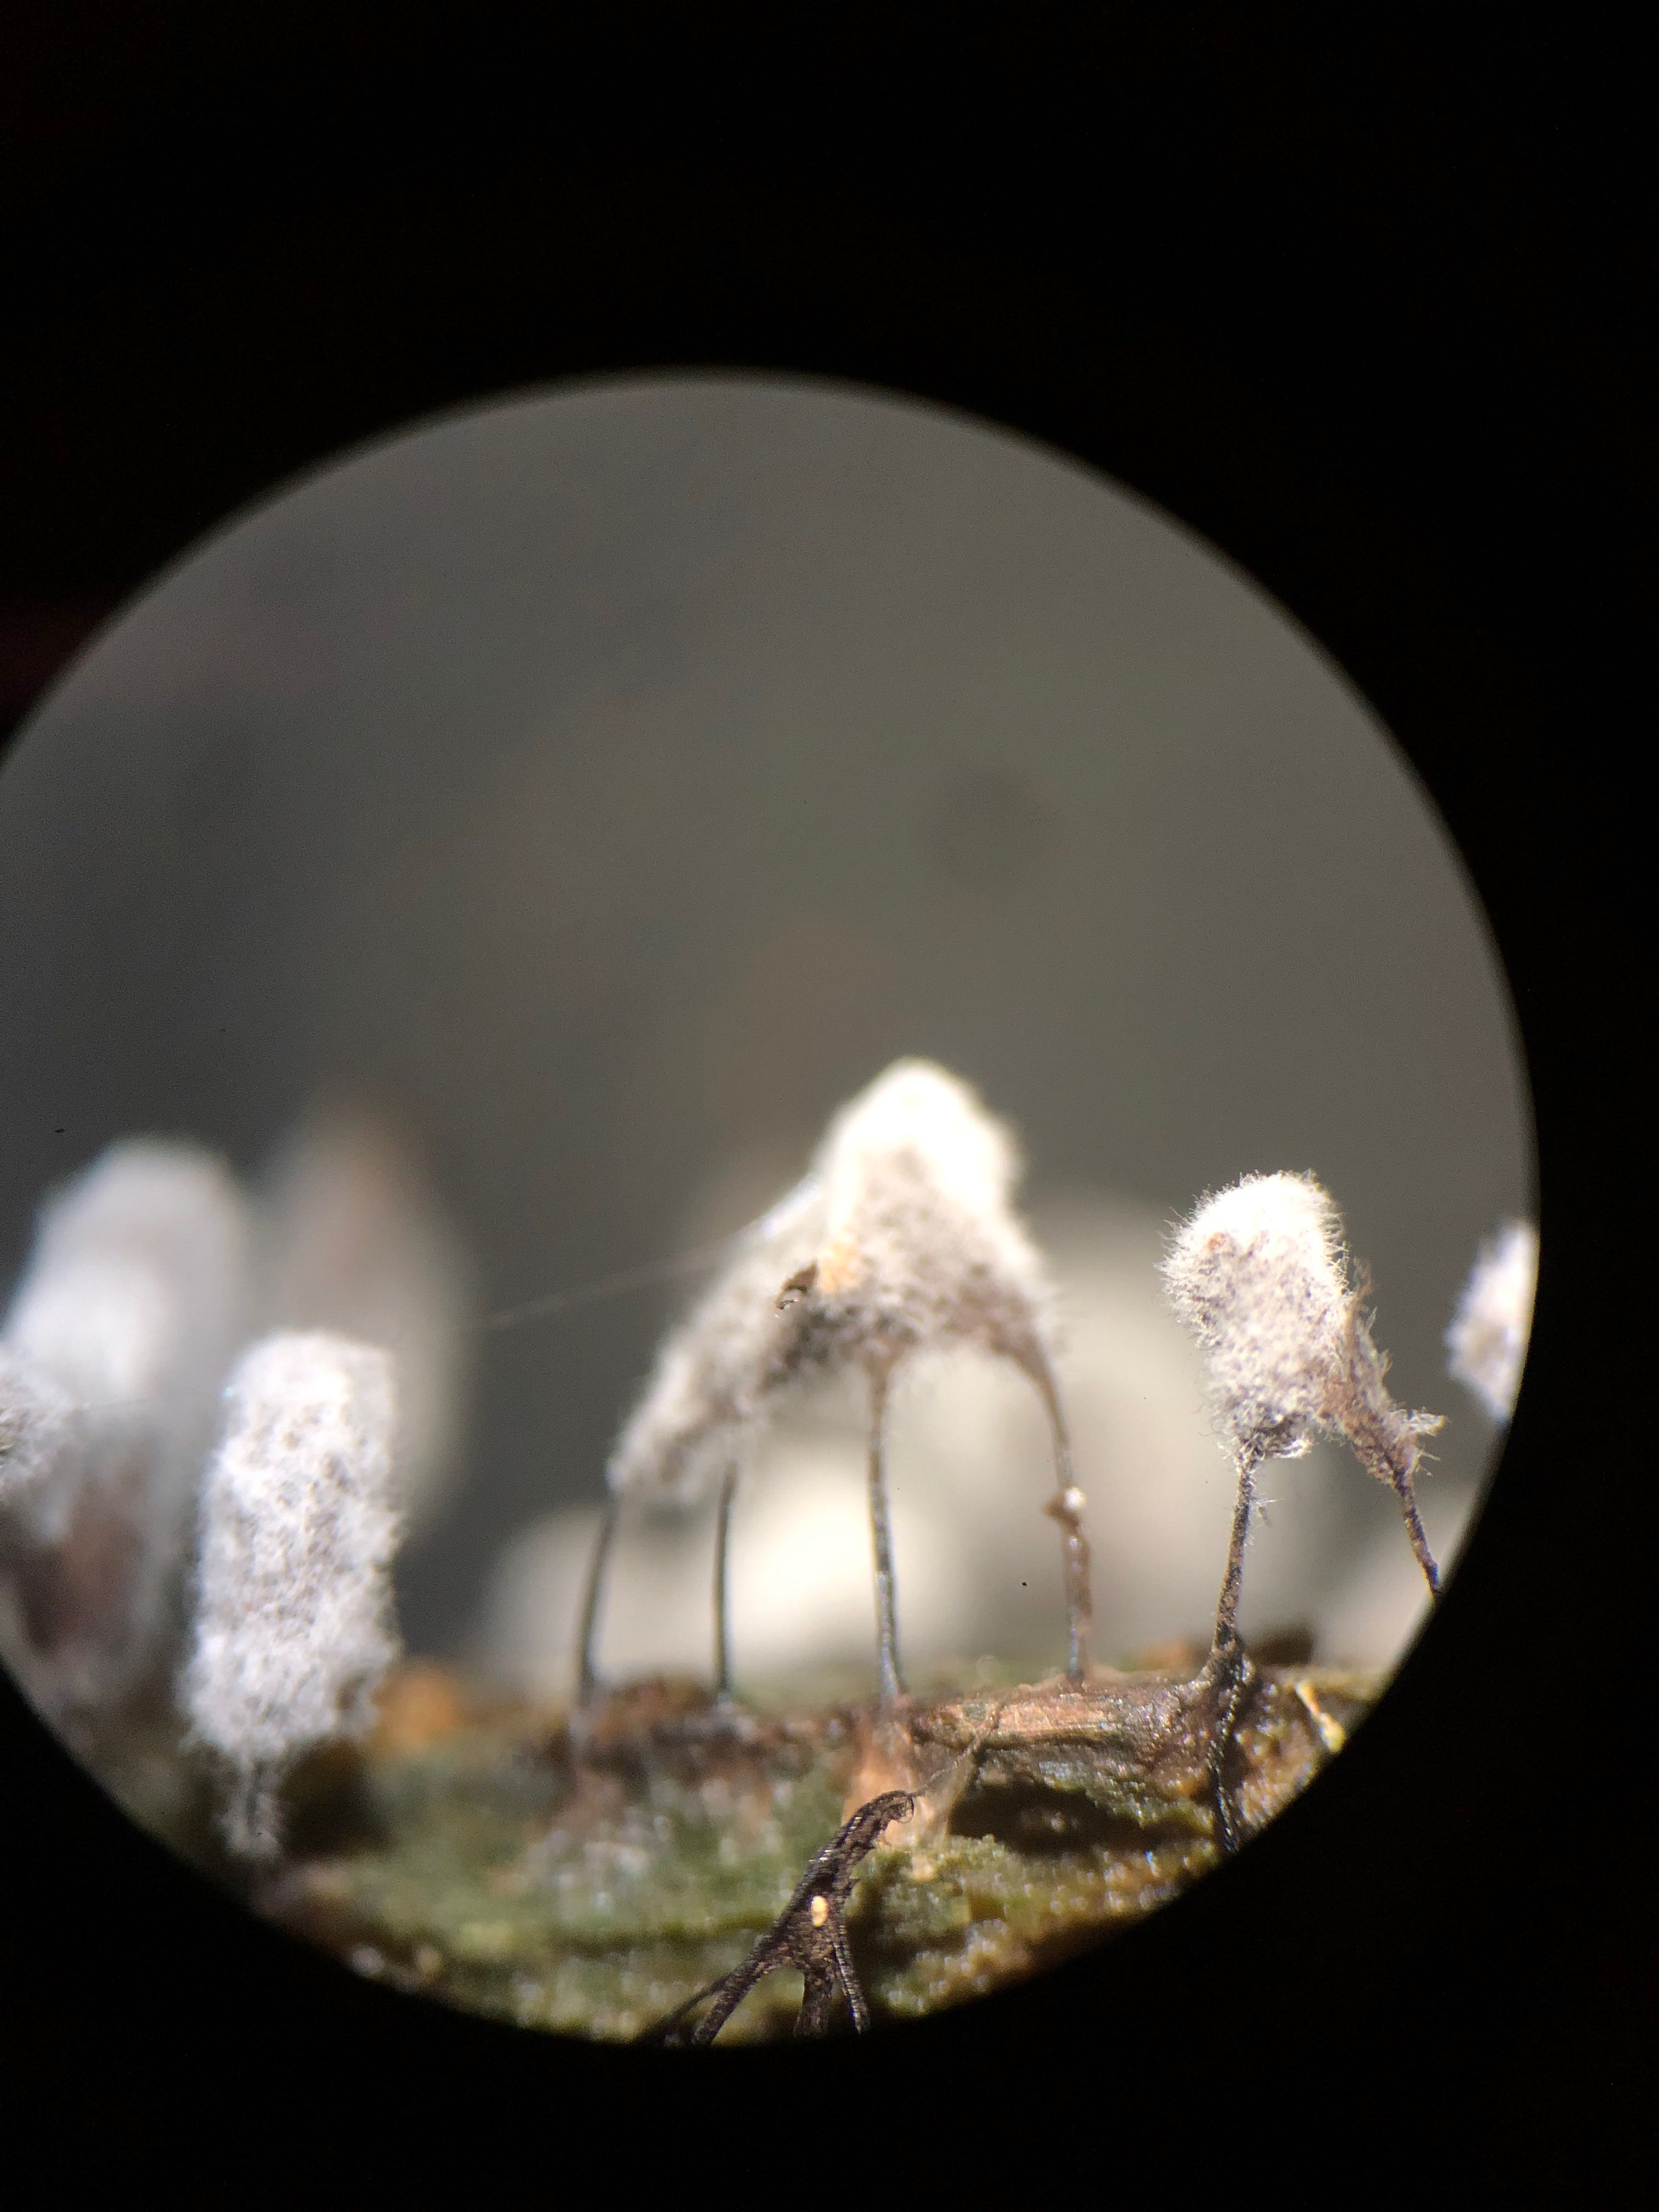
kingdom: Protozoa
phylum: Mycetozoa
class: Myxomycetes
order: Stemonitidales
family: Stemonitidaceae
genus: Stemonitopsis
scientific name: Stemonitopsis
